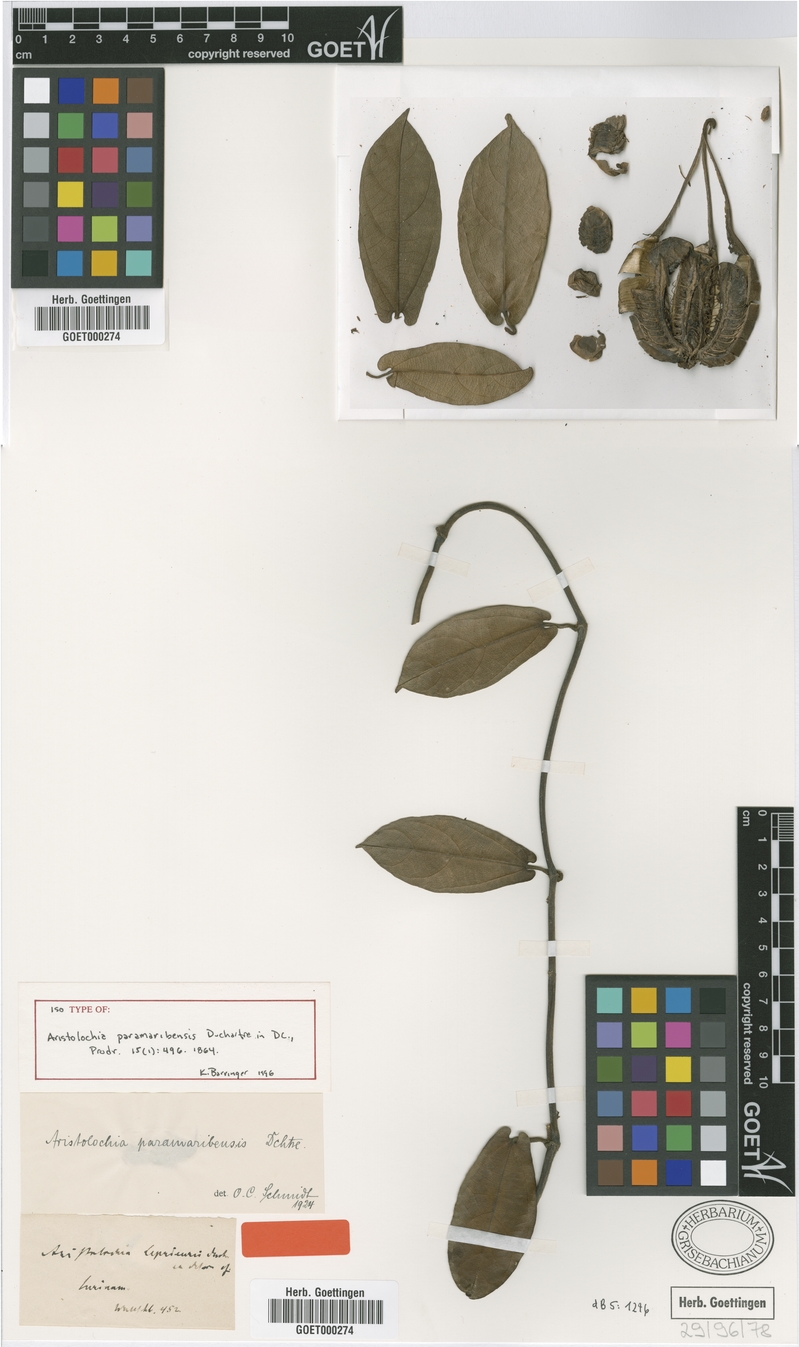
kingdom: Plantae
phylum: Tracheophyta
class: Magnoliopsida
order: Piperales
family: Aristolochiaceae
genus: Aristolochia
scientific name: Aristolochia paramaribensis
